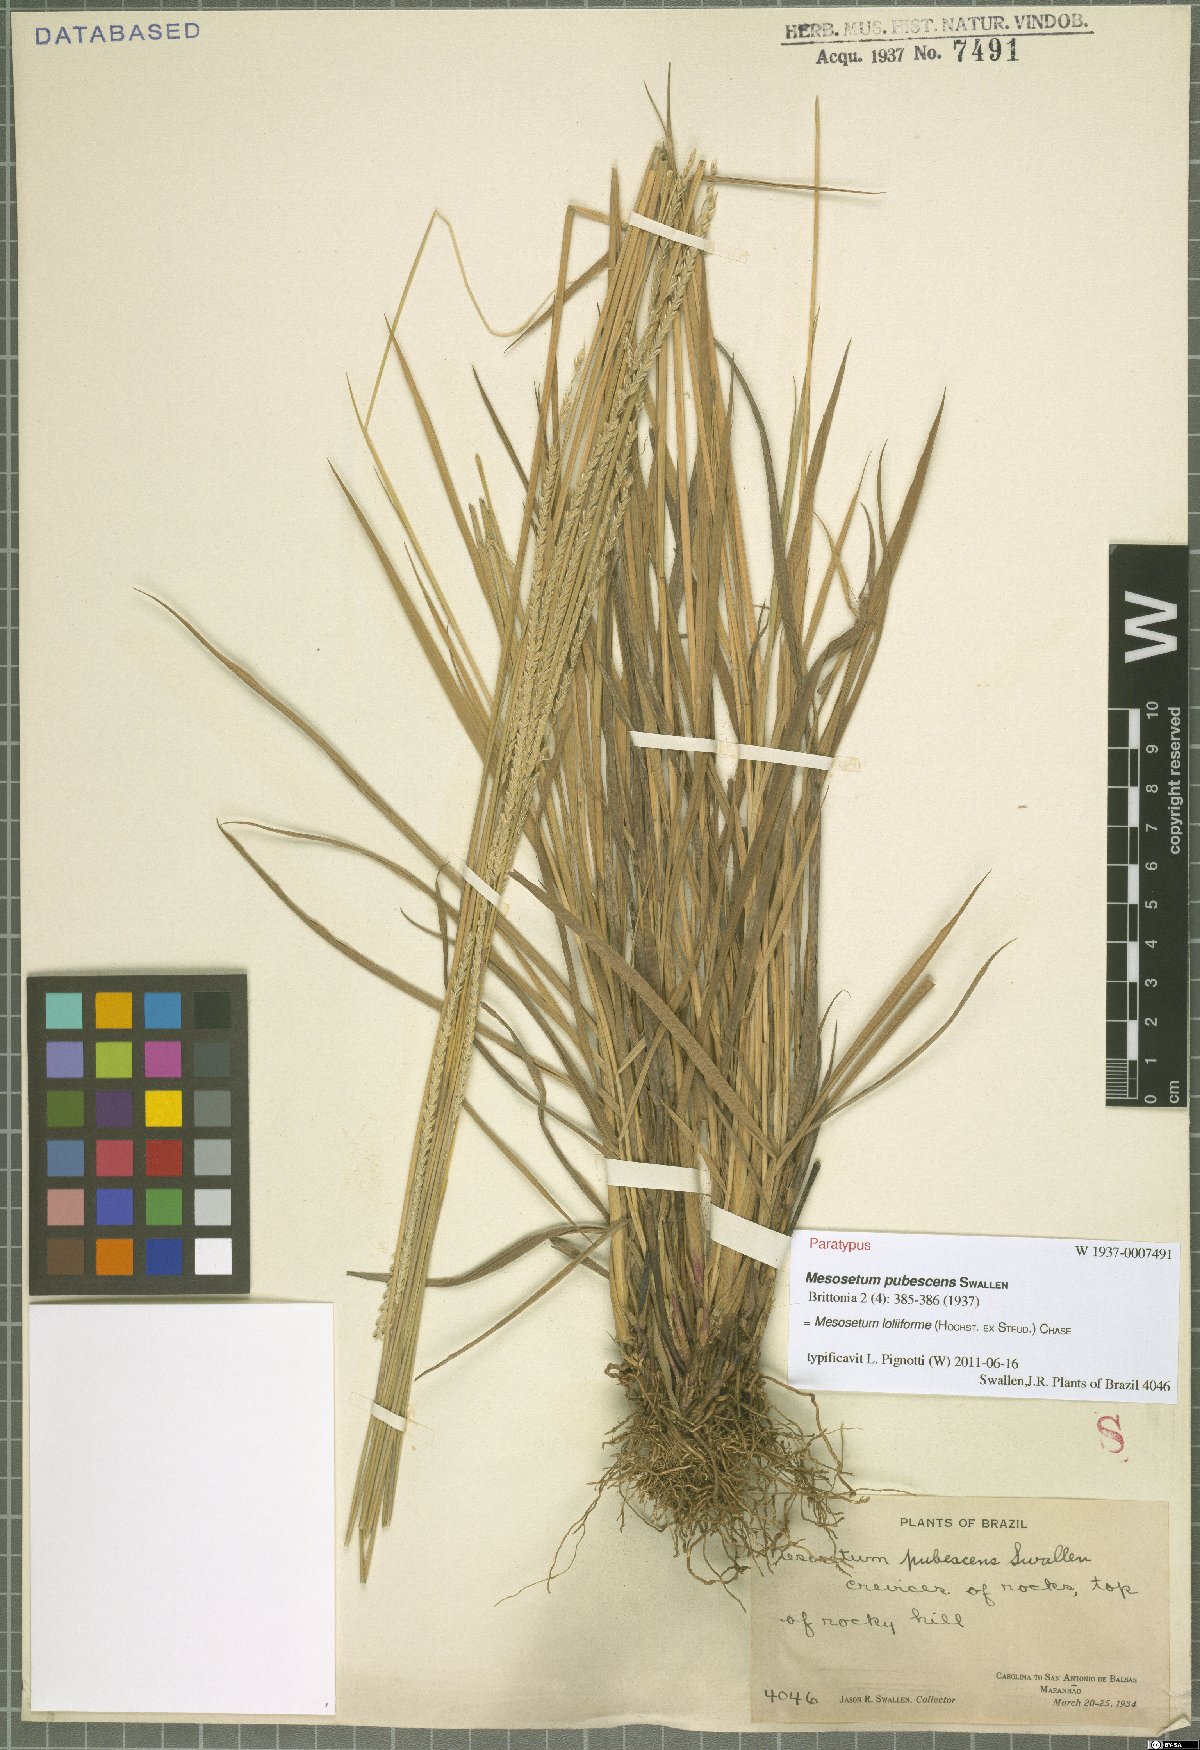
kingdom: Plantae
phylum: Tracheophyta
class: Liliopsida
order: Poales
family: Poaceae
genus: Mesosetum
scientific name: Mesosetum loliiforme
